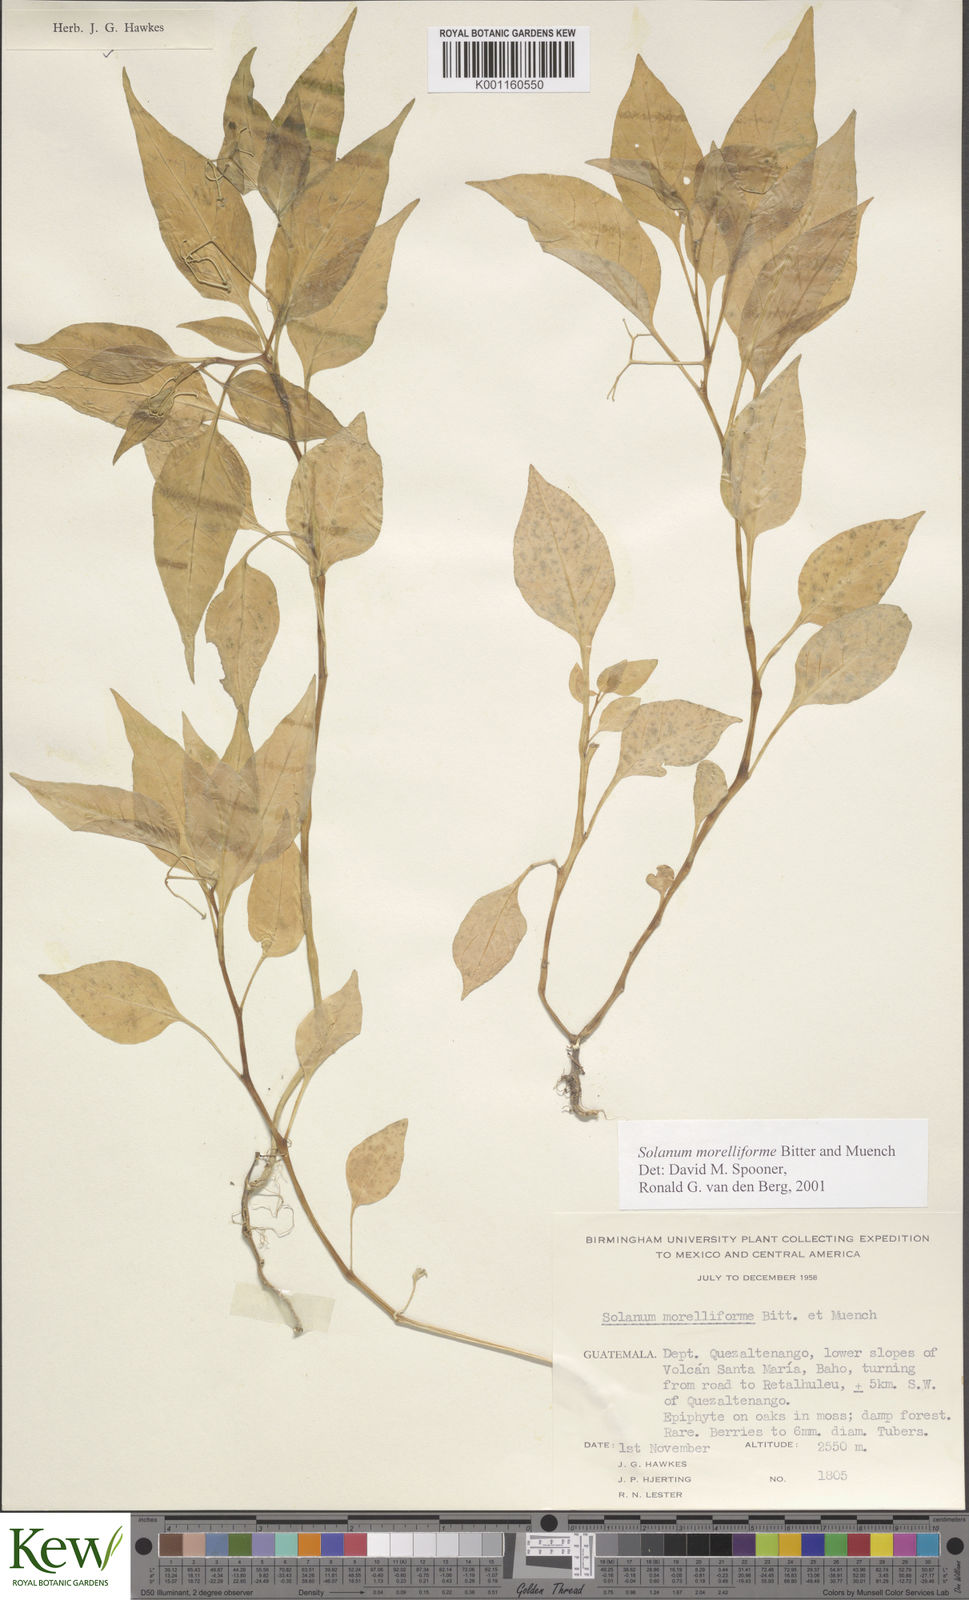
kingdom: Plantae
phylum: Tracheophyta
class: Magnoliopsida
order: Solanales
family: Solanaceae
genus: Solanum
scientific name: Solanum
